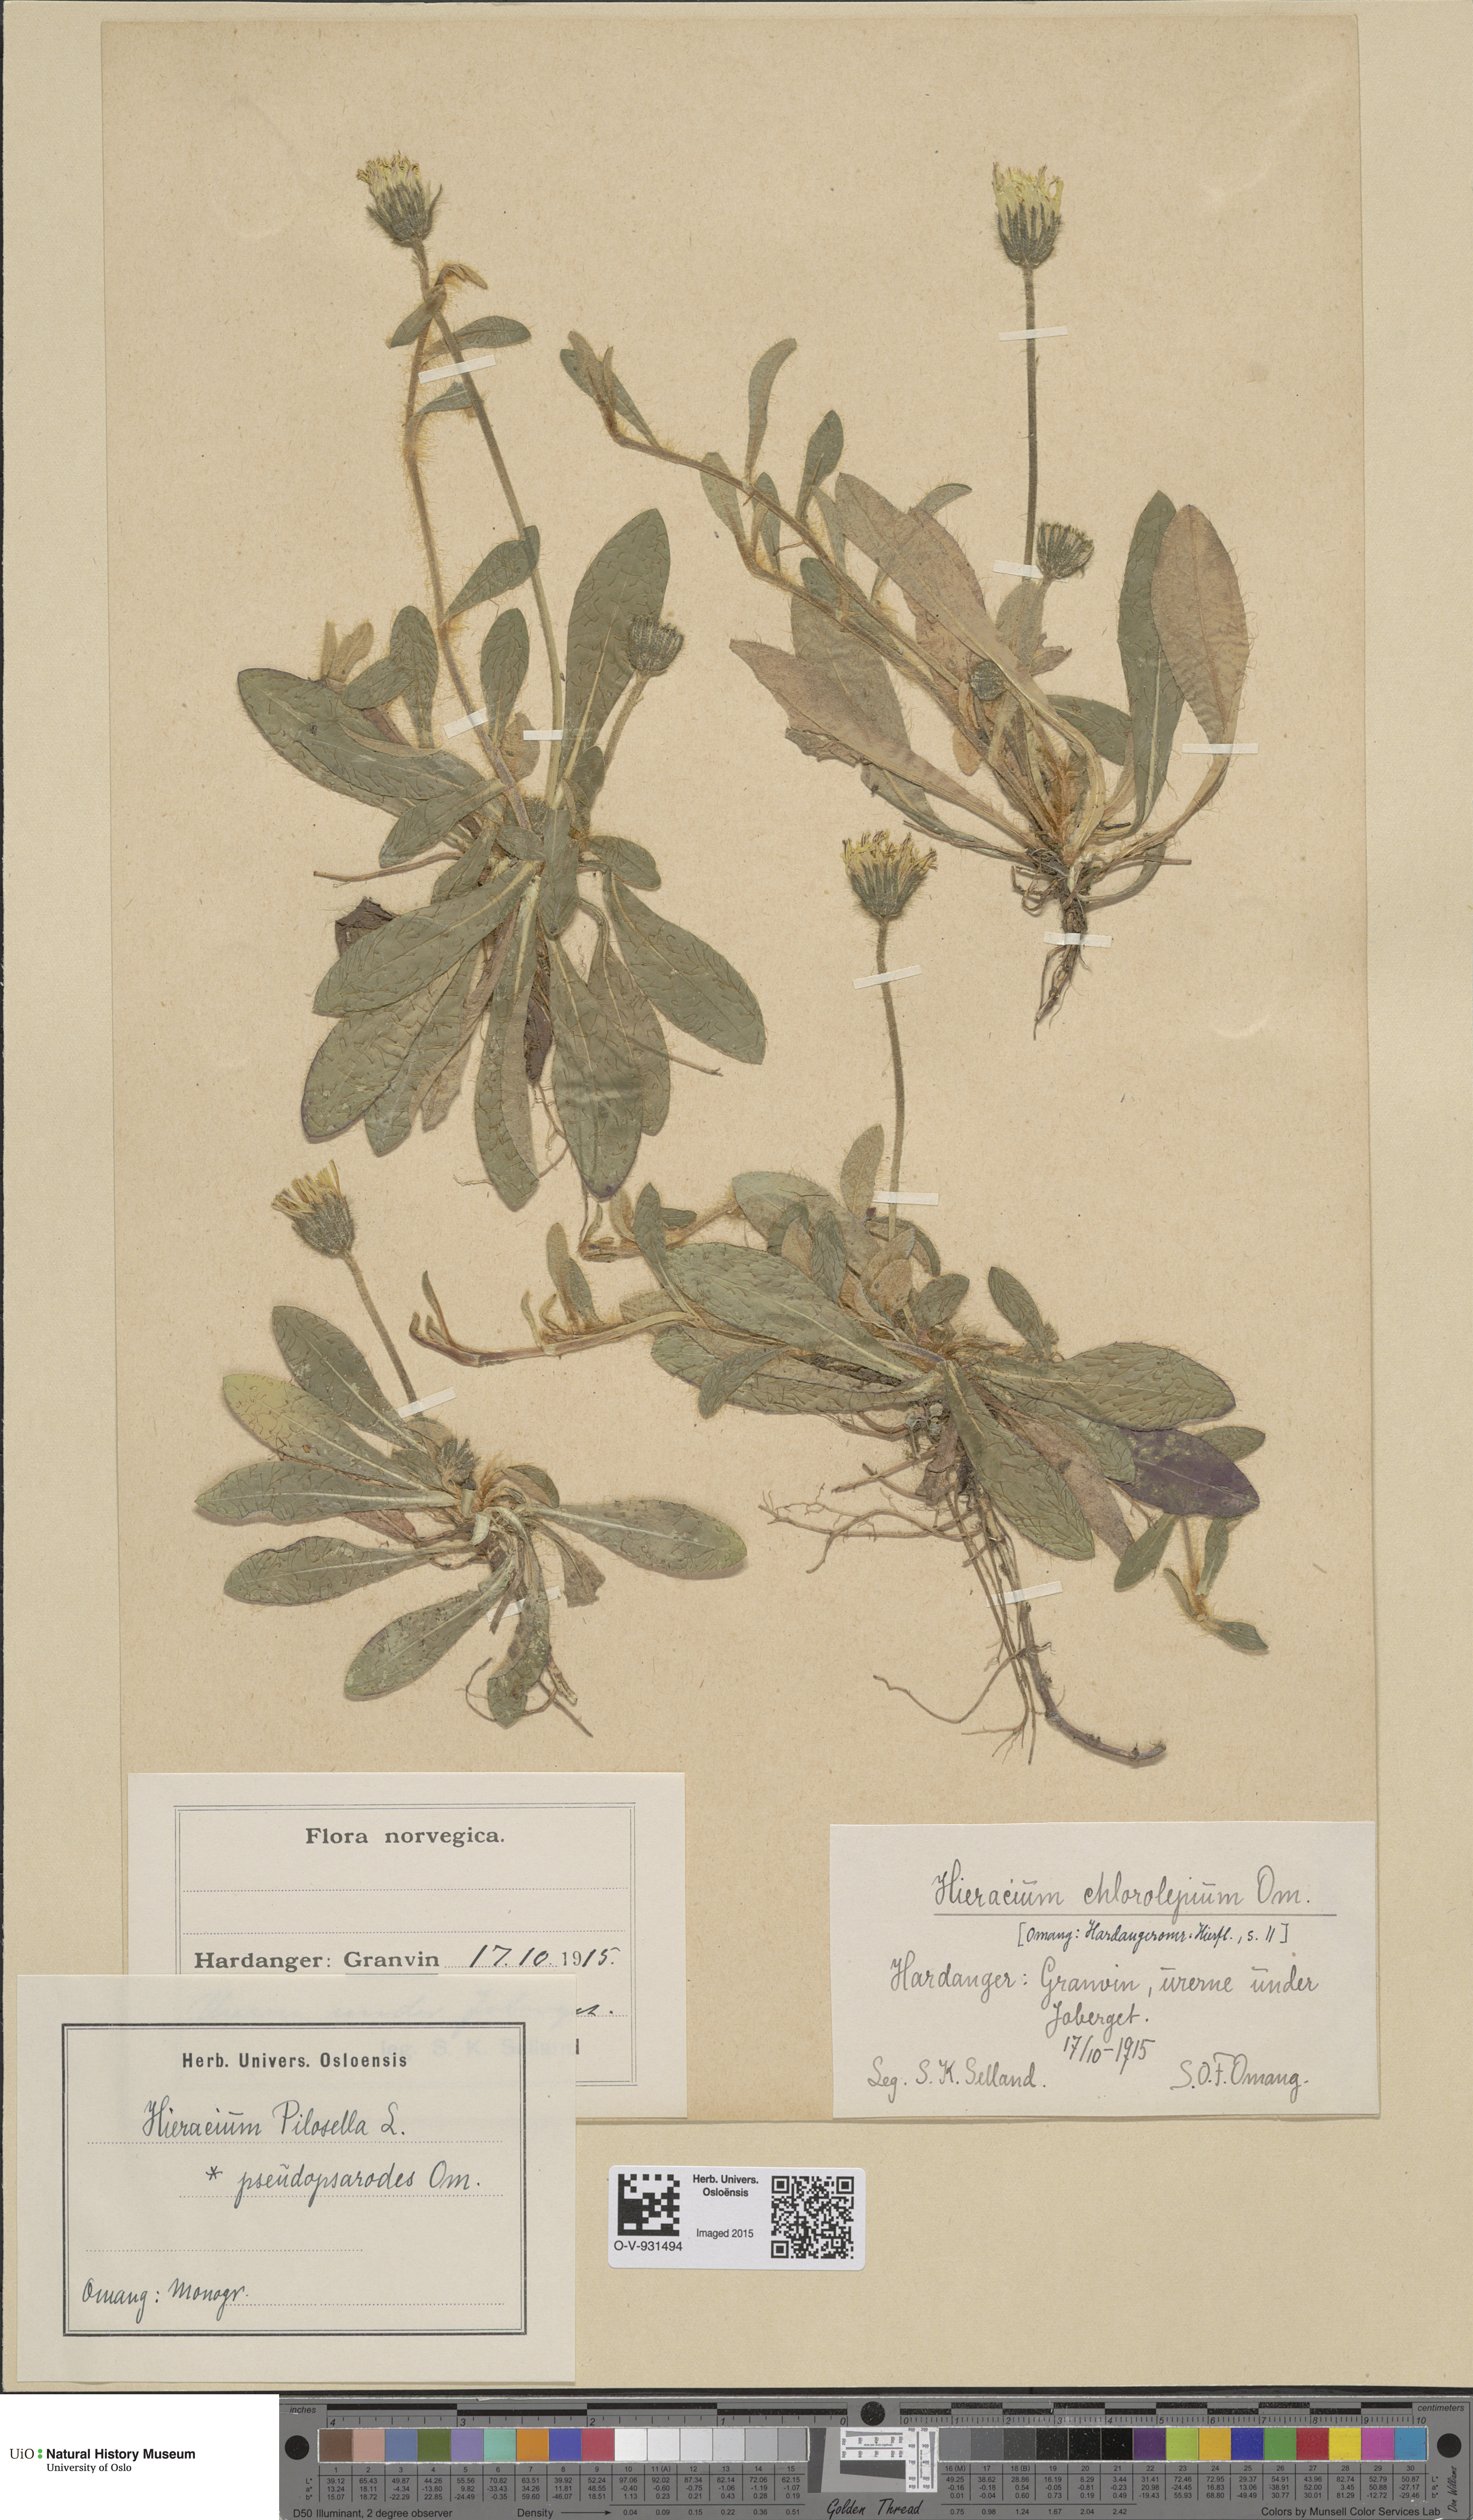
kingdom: Plantae
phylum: Tracheophyta
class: Magnoliopsida
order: Asterales
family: Asteraceae
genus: Pilosella
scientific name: Pilosella officinarum
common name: Mouse-ear hawkweed
